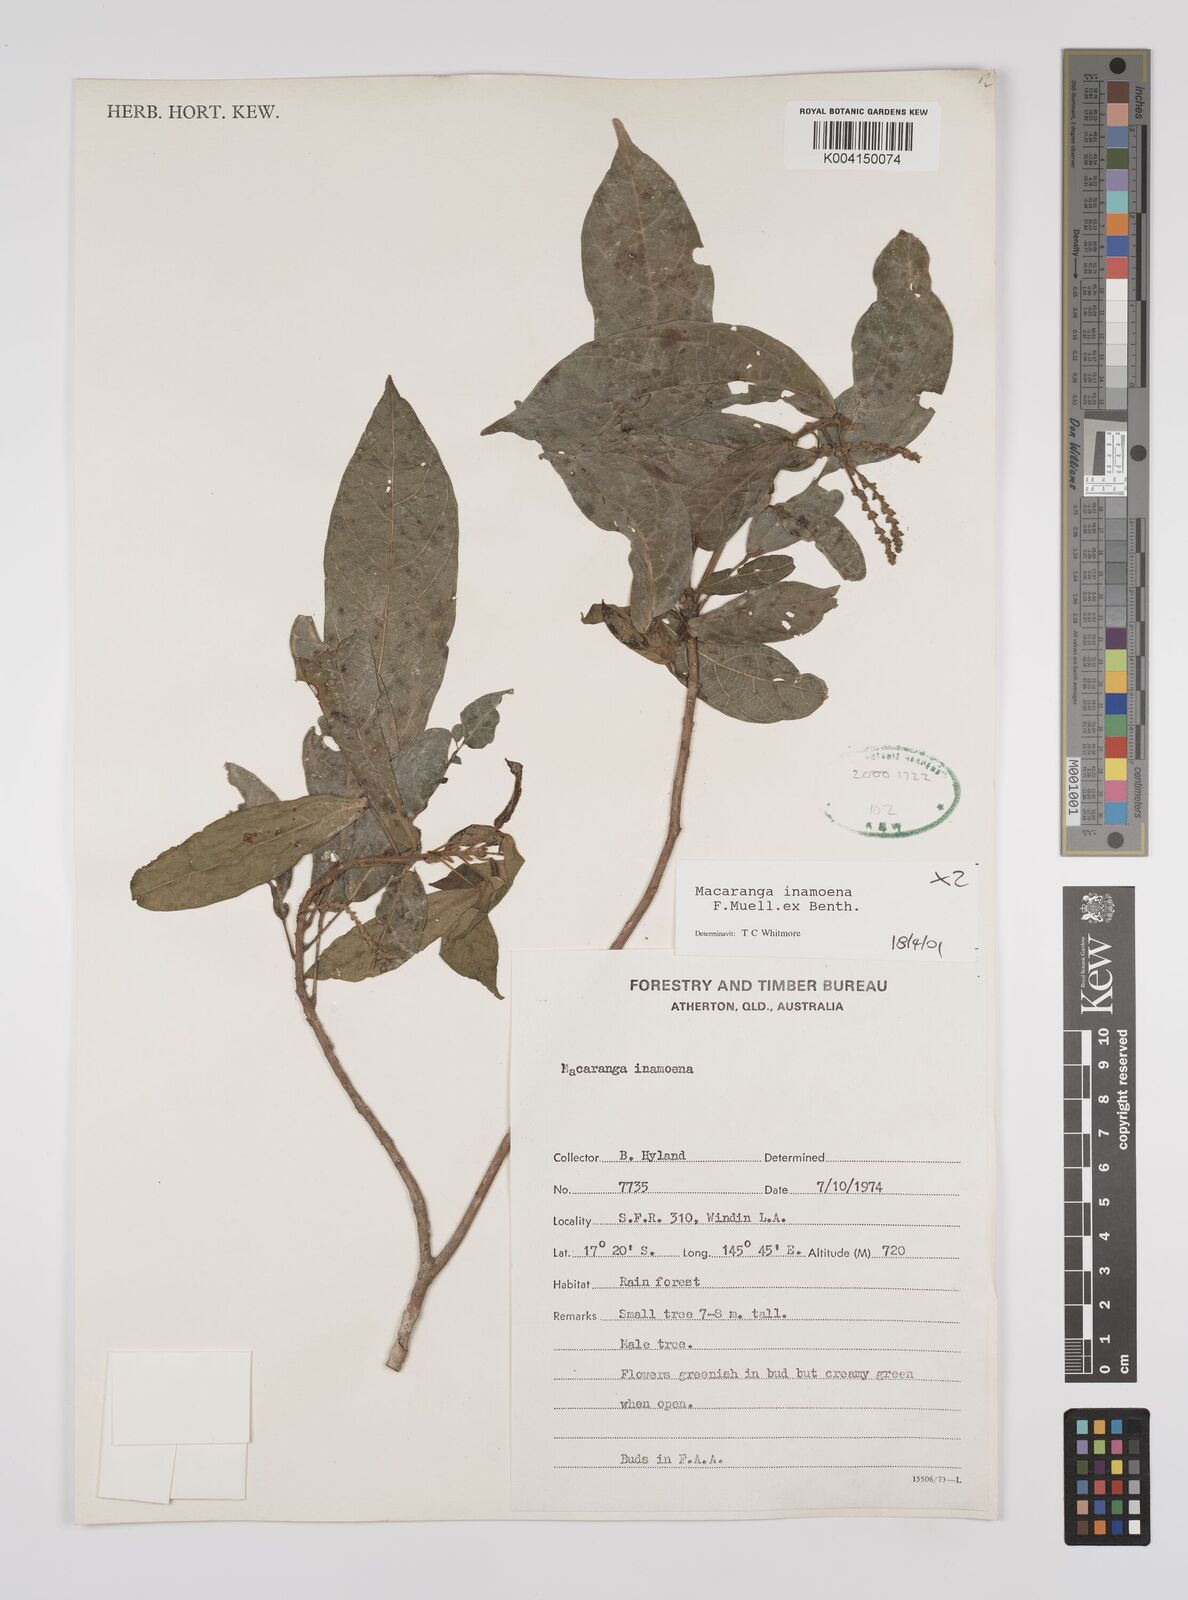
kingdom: Plantae
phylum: Tracheophyta
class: Magnoliopsida
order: Malpighiales
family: Euphorbiaceae
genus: Macaranga
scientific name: Macaranga inamoena
